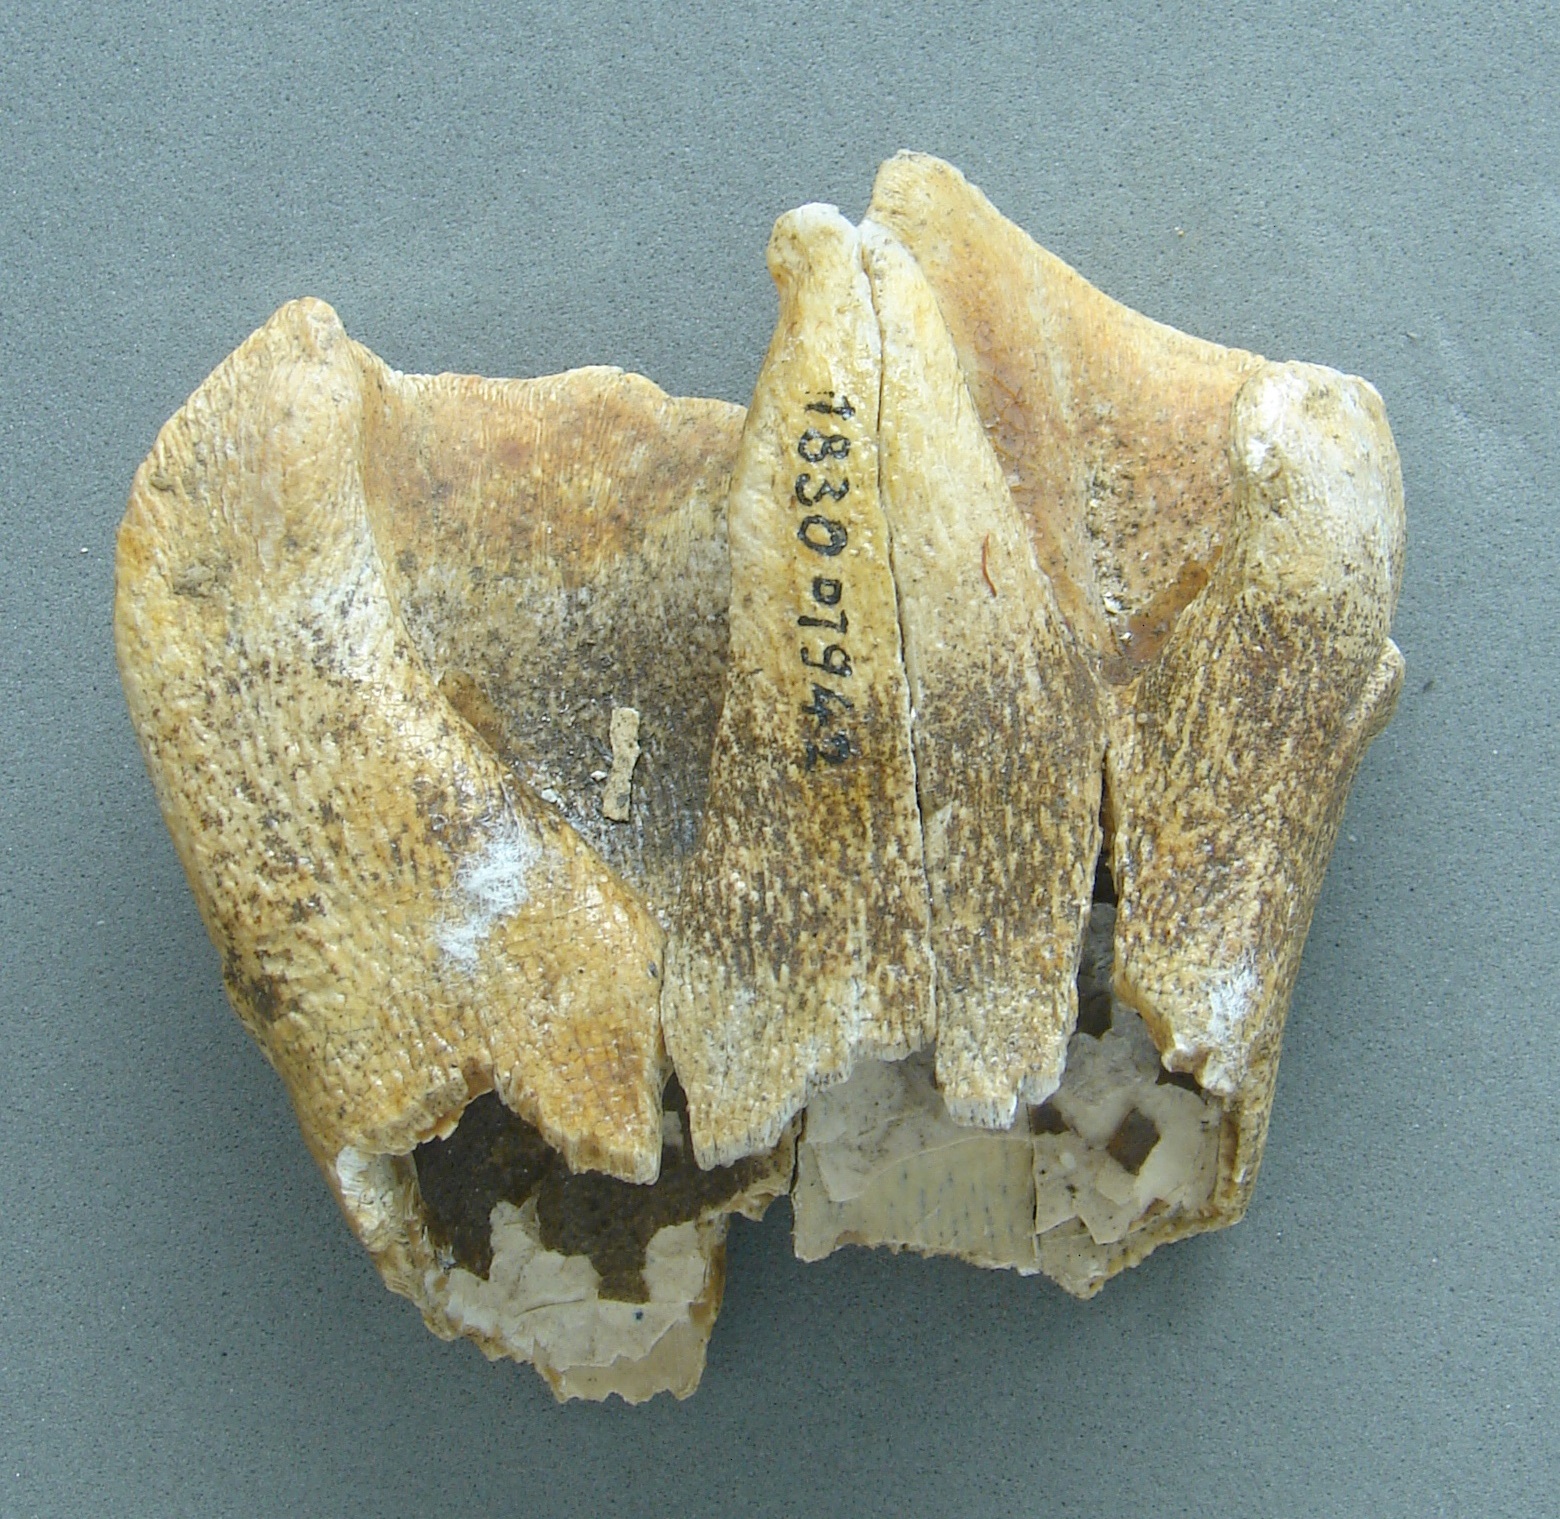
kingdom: Animalia
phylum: Chordata
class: Mammalia
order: Perissodactyla
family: Rhinocerotidae
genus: Rhinoceros
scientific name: Rhinoceros
